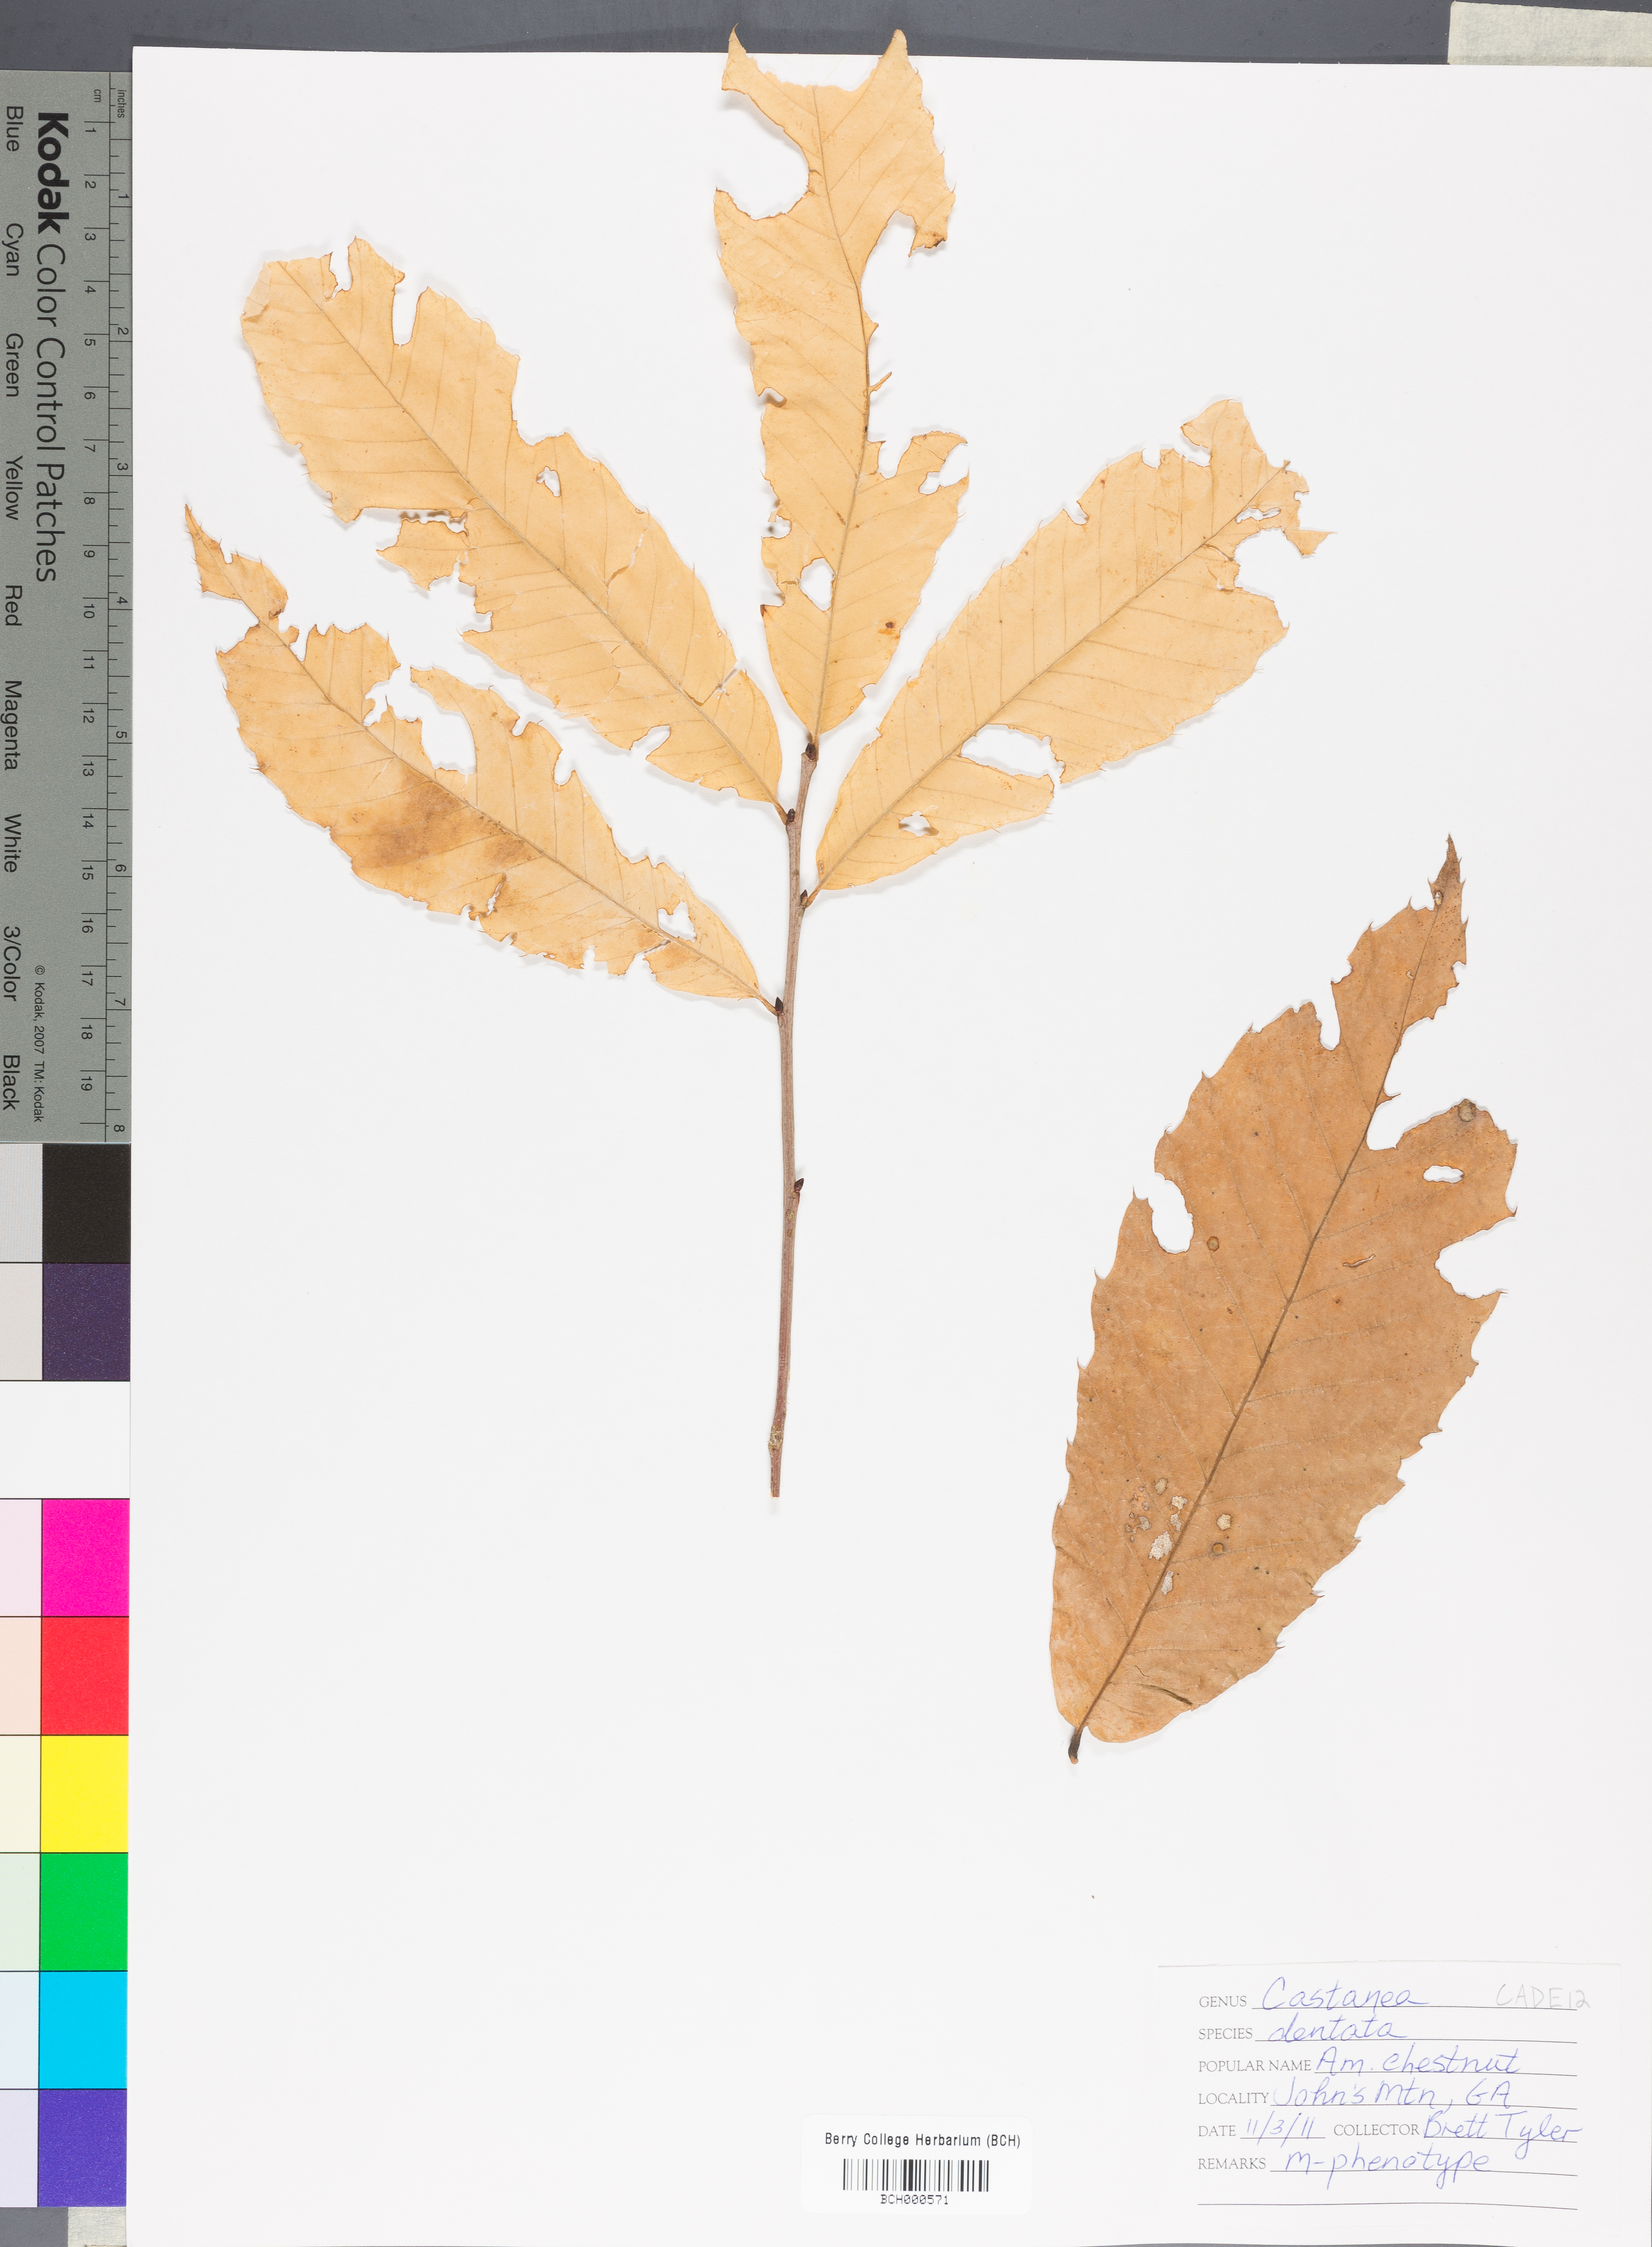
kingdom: Plantae
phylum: Tracheophyta
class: Magnoliopsida
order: Fagales
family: Fagaceae
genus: Castanea
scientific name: Castanea dentata
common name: American chestnut
